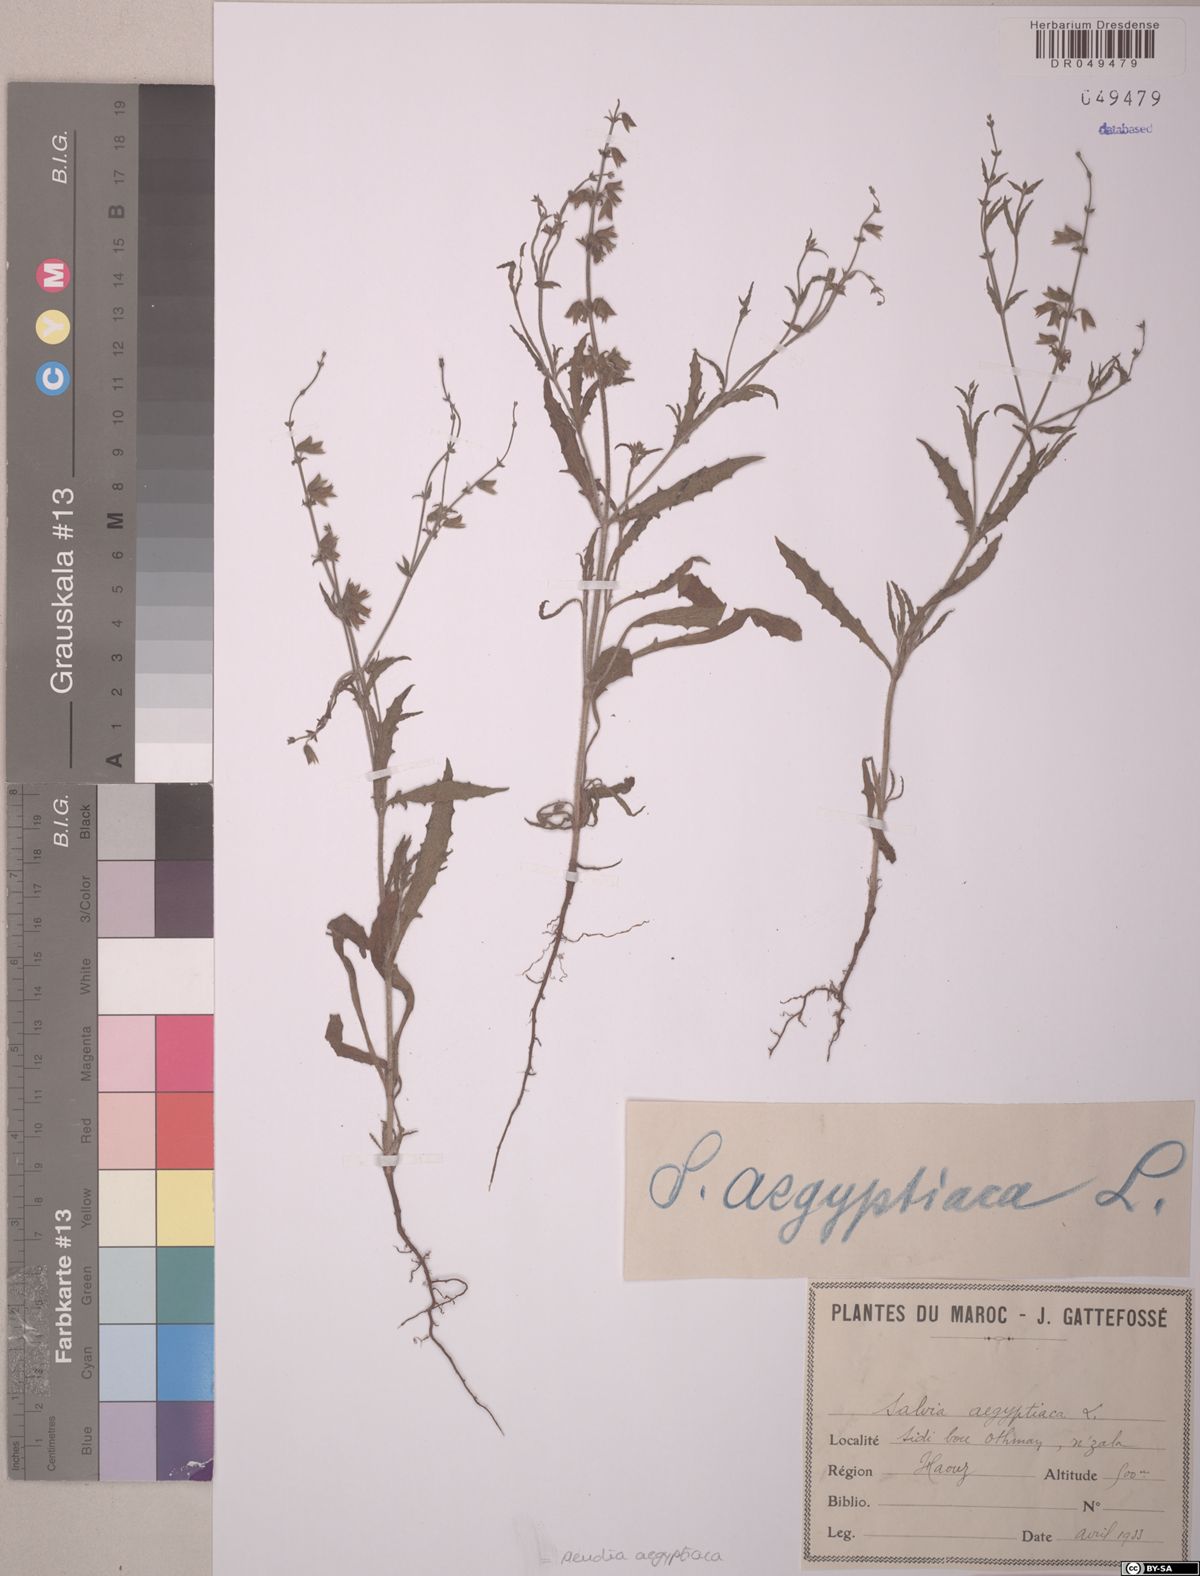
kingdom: Plantae
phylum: Tracheophyta
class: Magnoliopsida
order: Lamiales
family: Lamiaceae
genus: Salvia
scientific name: Salvia aegyptiaca
